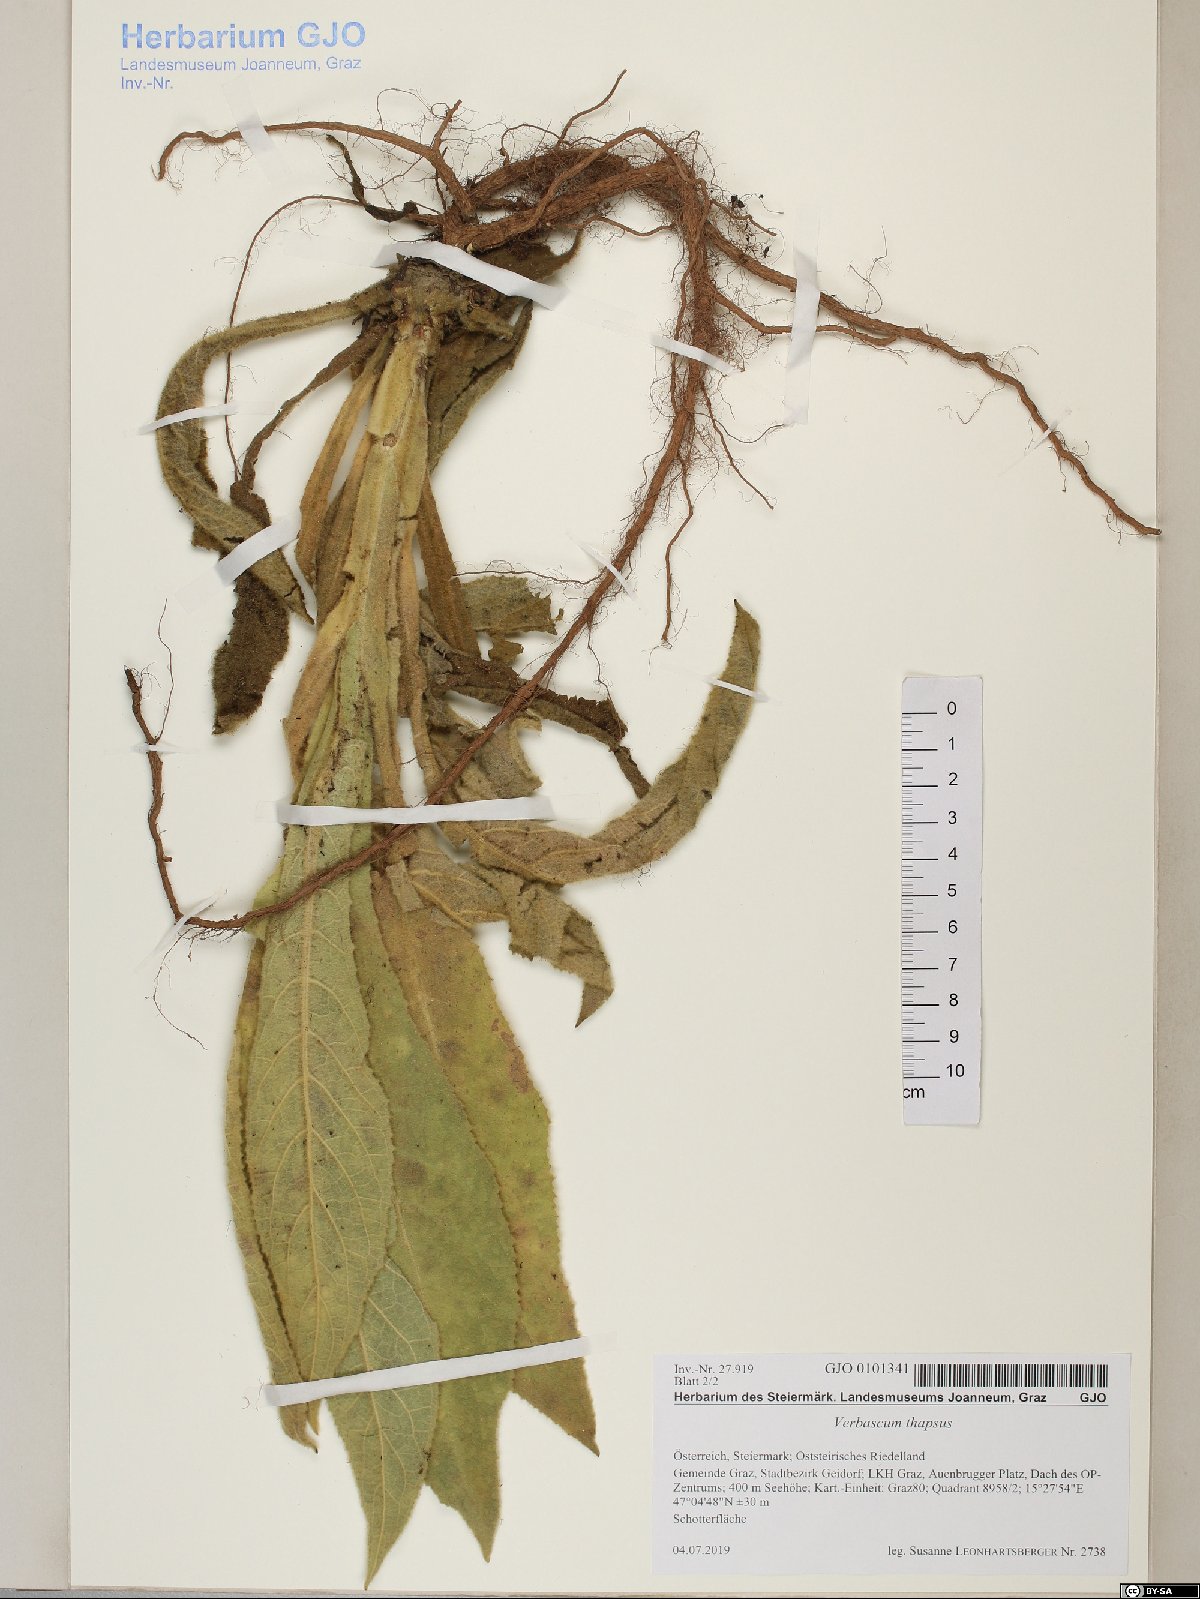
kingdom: Plantae
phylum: Tracheophyta
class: Magnoliopsida
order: Lamiales
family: Scrophulariaceae
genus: Verbascum
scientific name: Verbascum thapsus
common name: Common mullein
